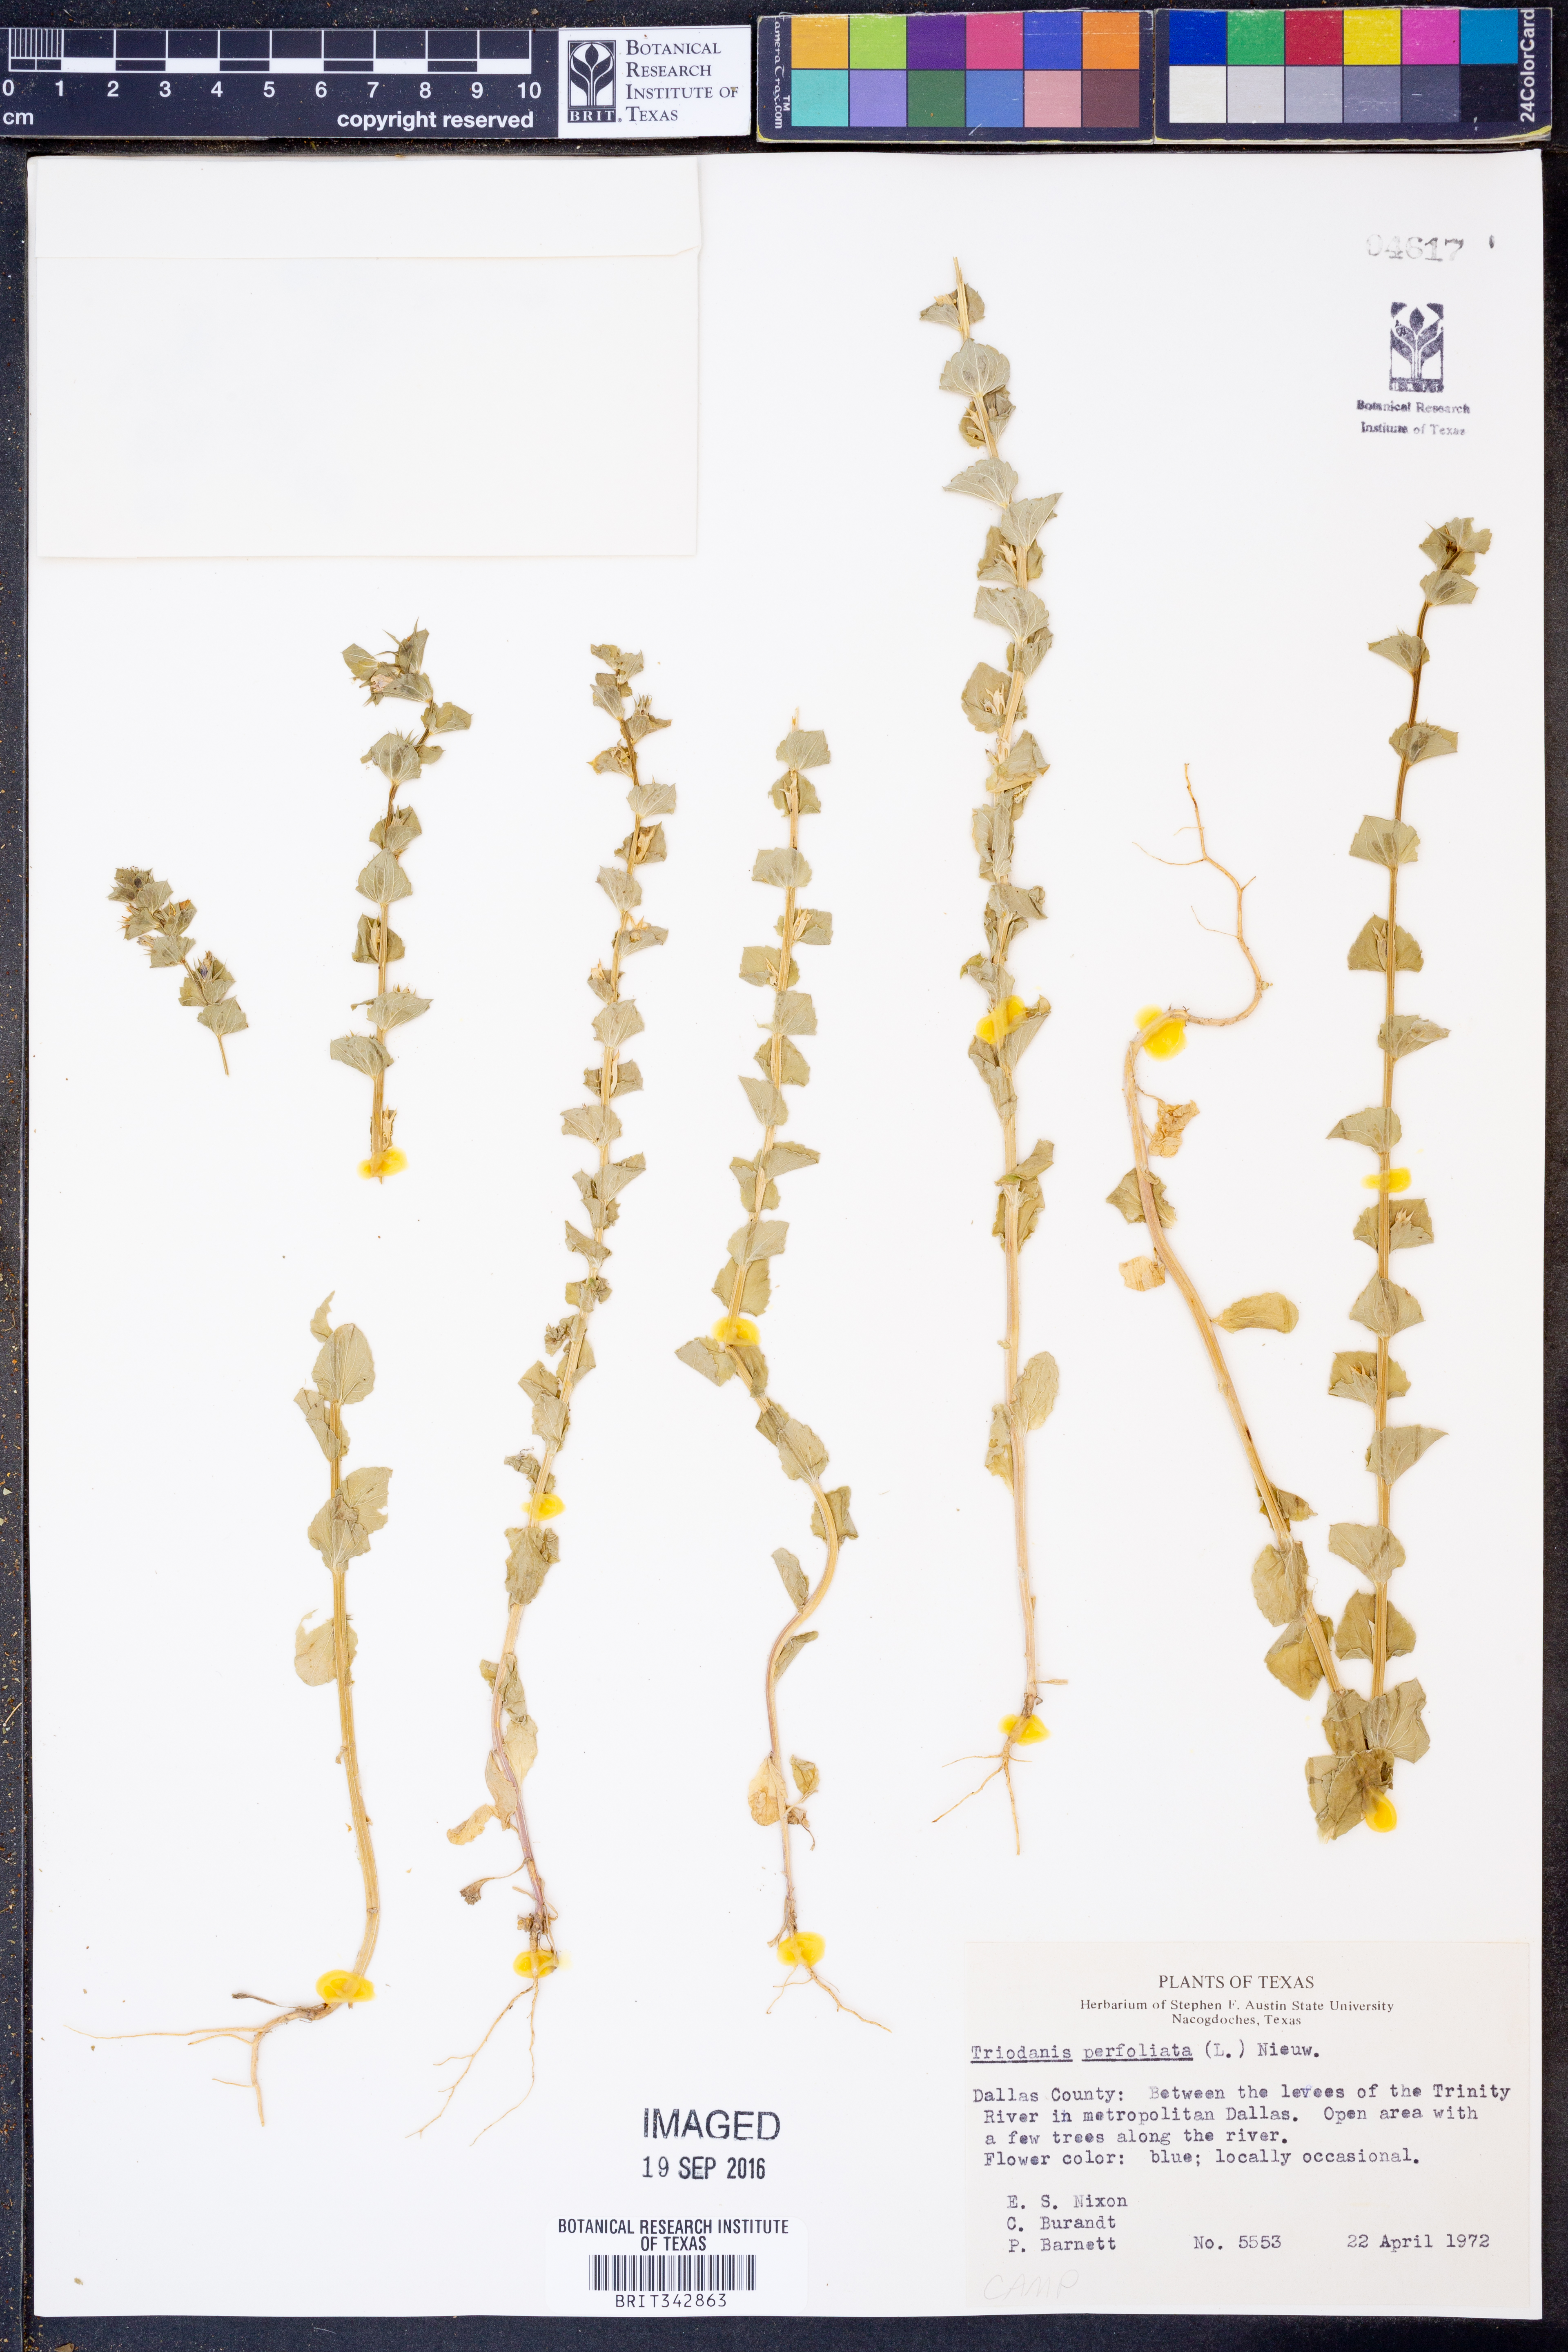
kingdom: Plantae
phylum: Tracheophyta
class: Magnoliopsida
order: Asterales
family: Campanulaceae
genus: Triodanis
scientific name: Triodanis perfoliata
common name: Clasping venus' looking-glass
